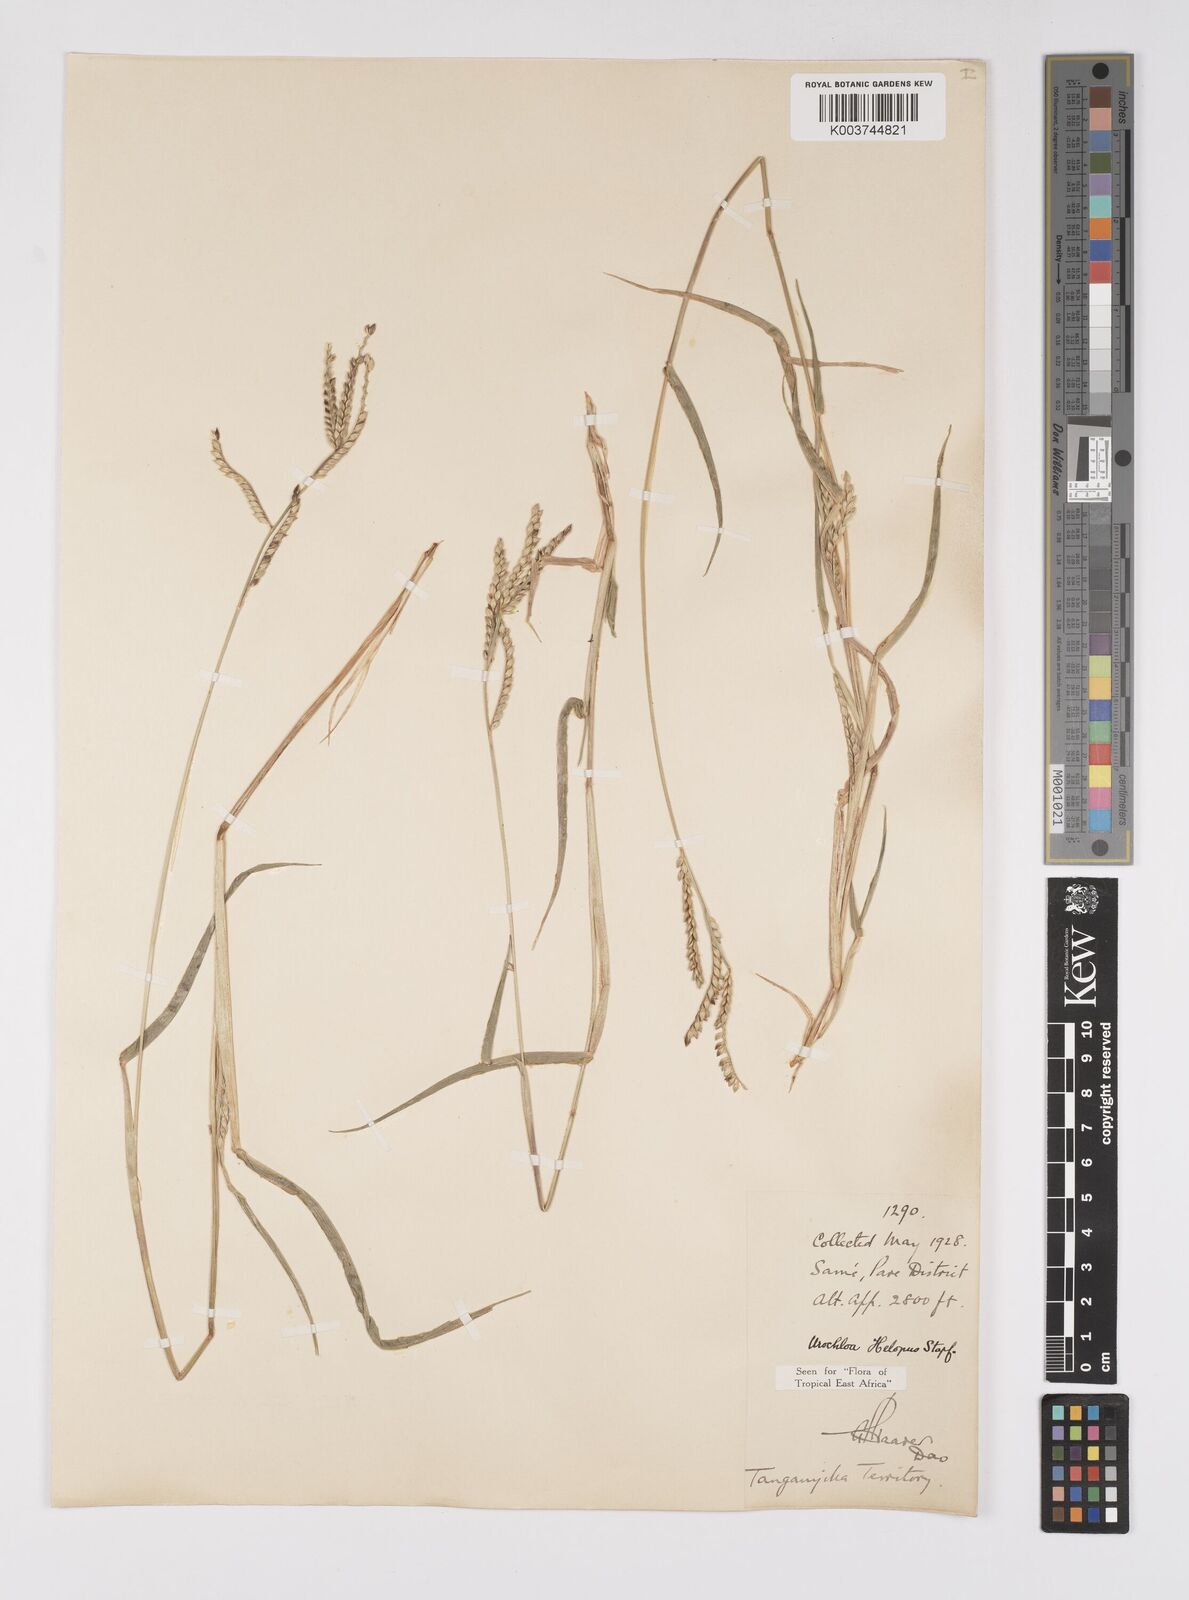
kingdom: Plantae
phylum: Tracheophyta
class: Liliopsida
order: Poales
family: Poaceae
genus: Urochloa
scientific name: Urochloa panicoides
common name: Sharp-flowered signal-grass
